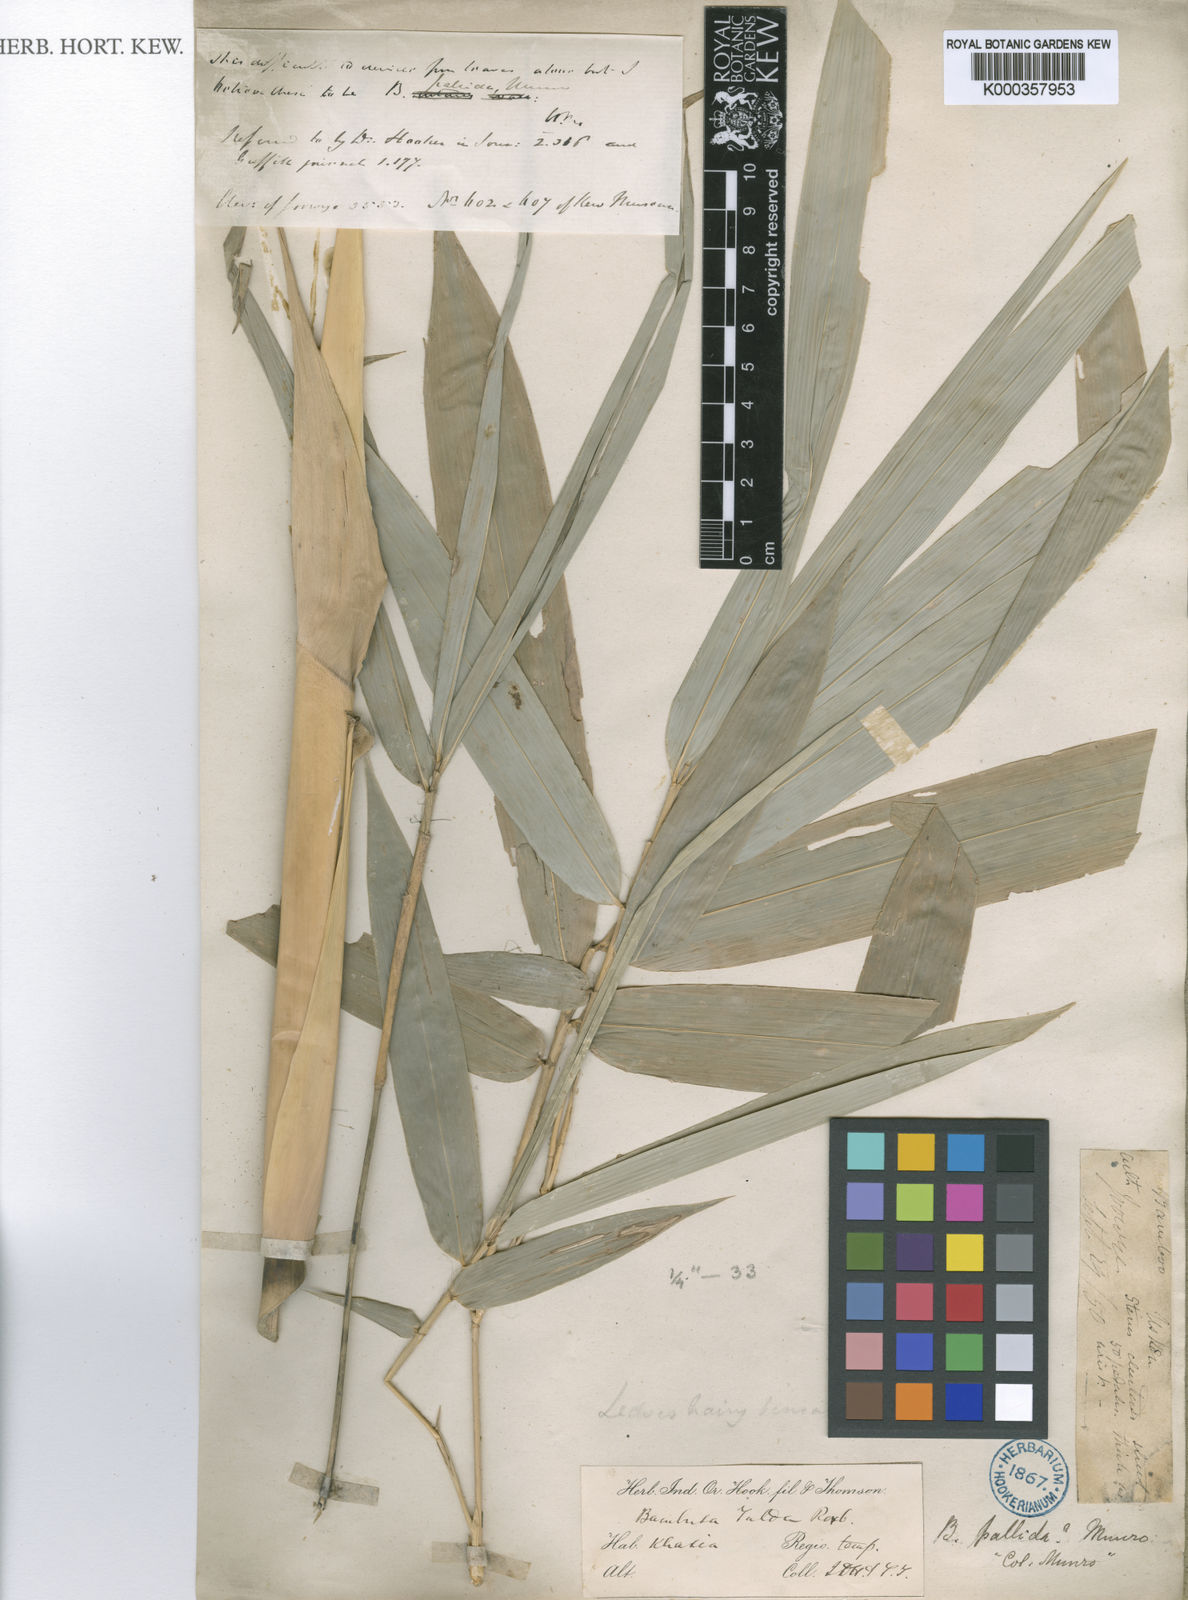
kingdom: Plantae
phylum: Tracheophyta
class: Liliopsida
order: Poales
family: Poaceae
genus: Bambusa
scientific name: Bambusa pallida
